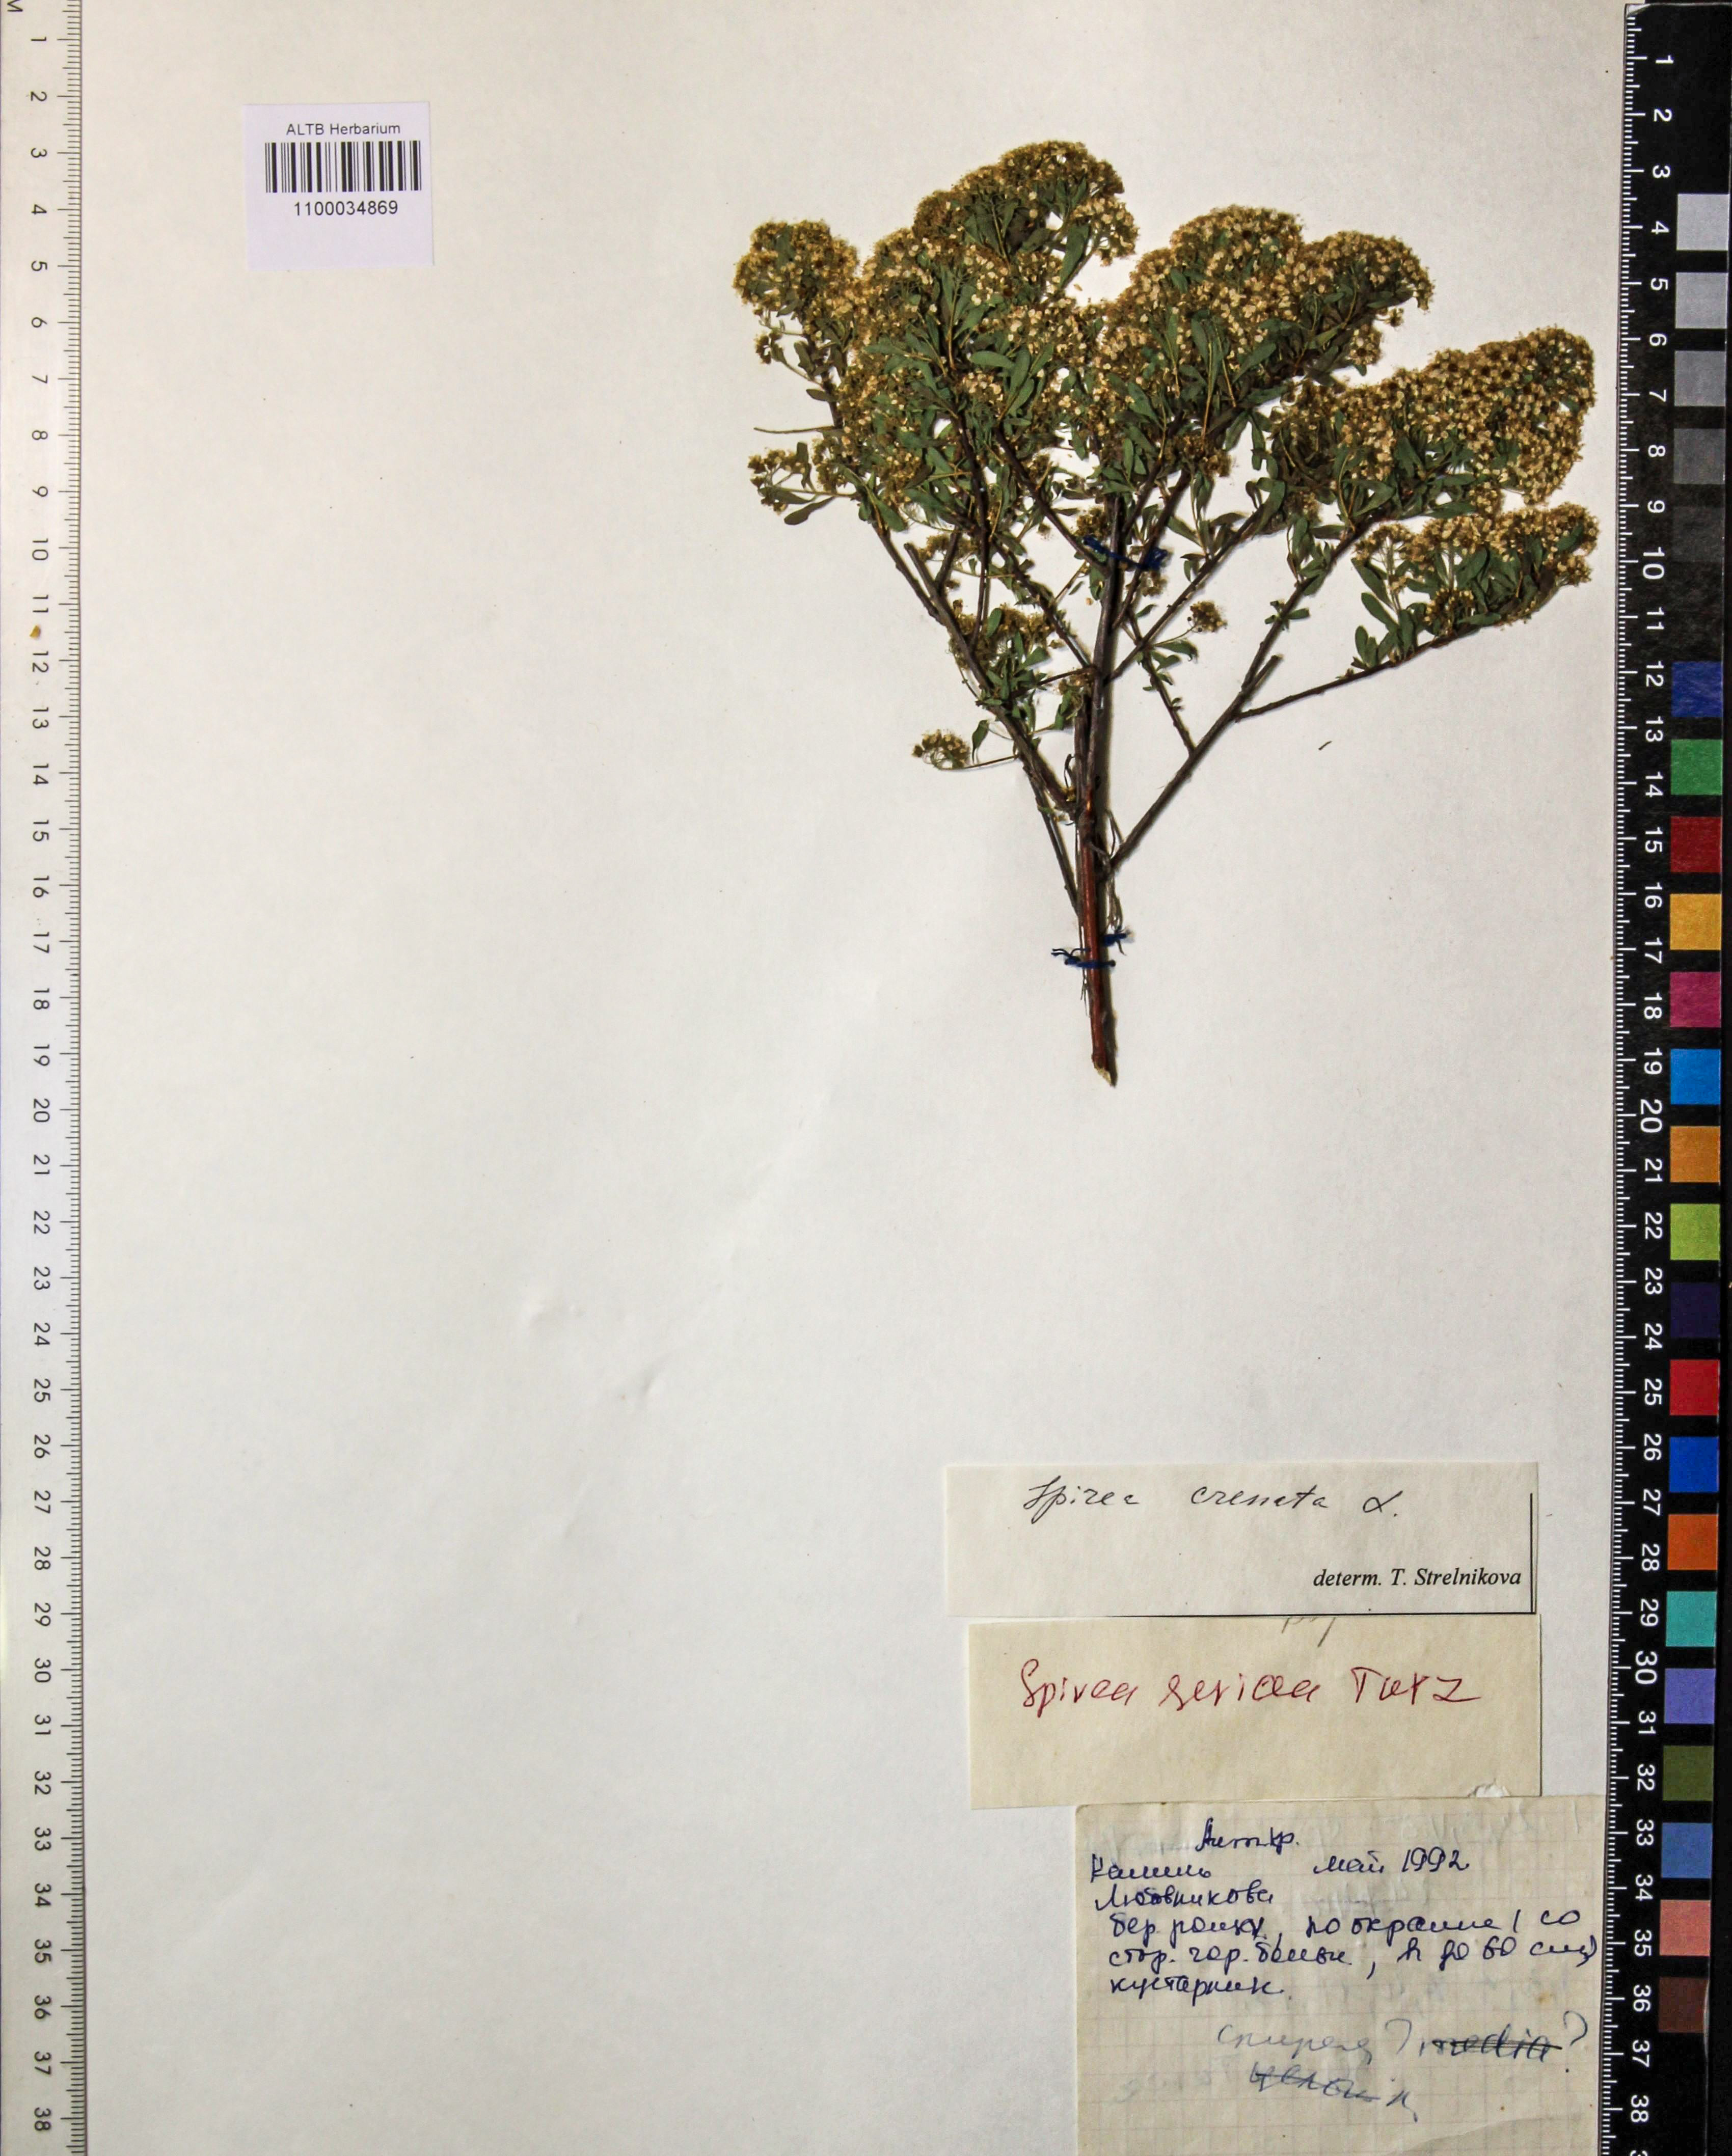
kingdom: Plantae
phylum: Tracheophyta
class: Magnoliopsida
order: Rosales
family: Rosaceae
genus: Spiraea
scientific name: Spiraea crenata
